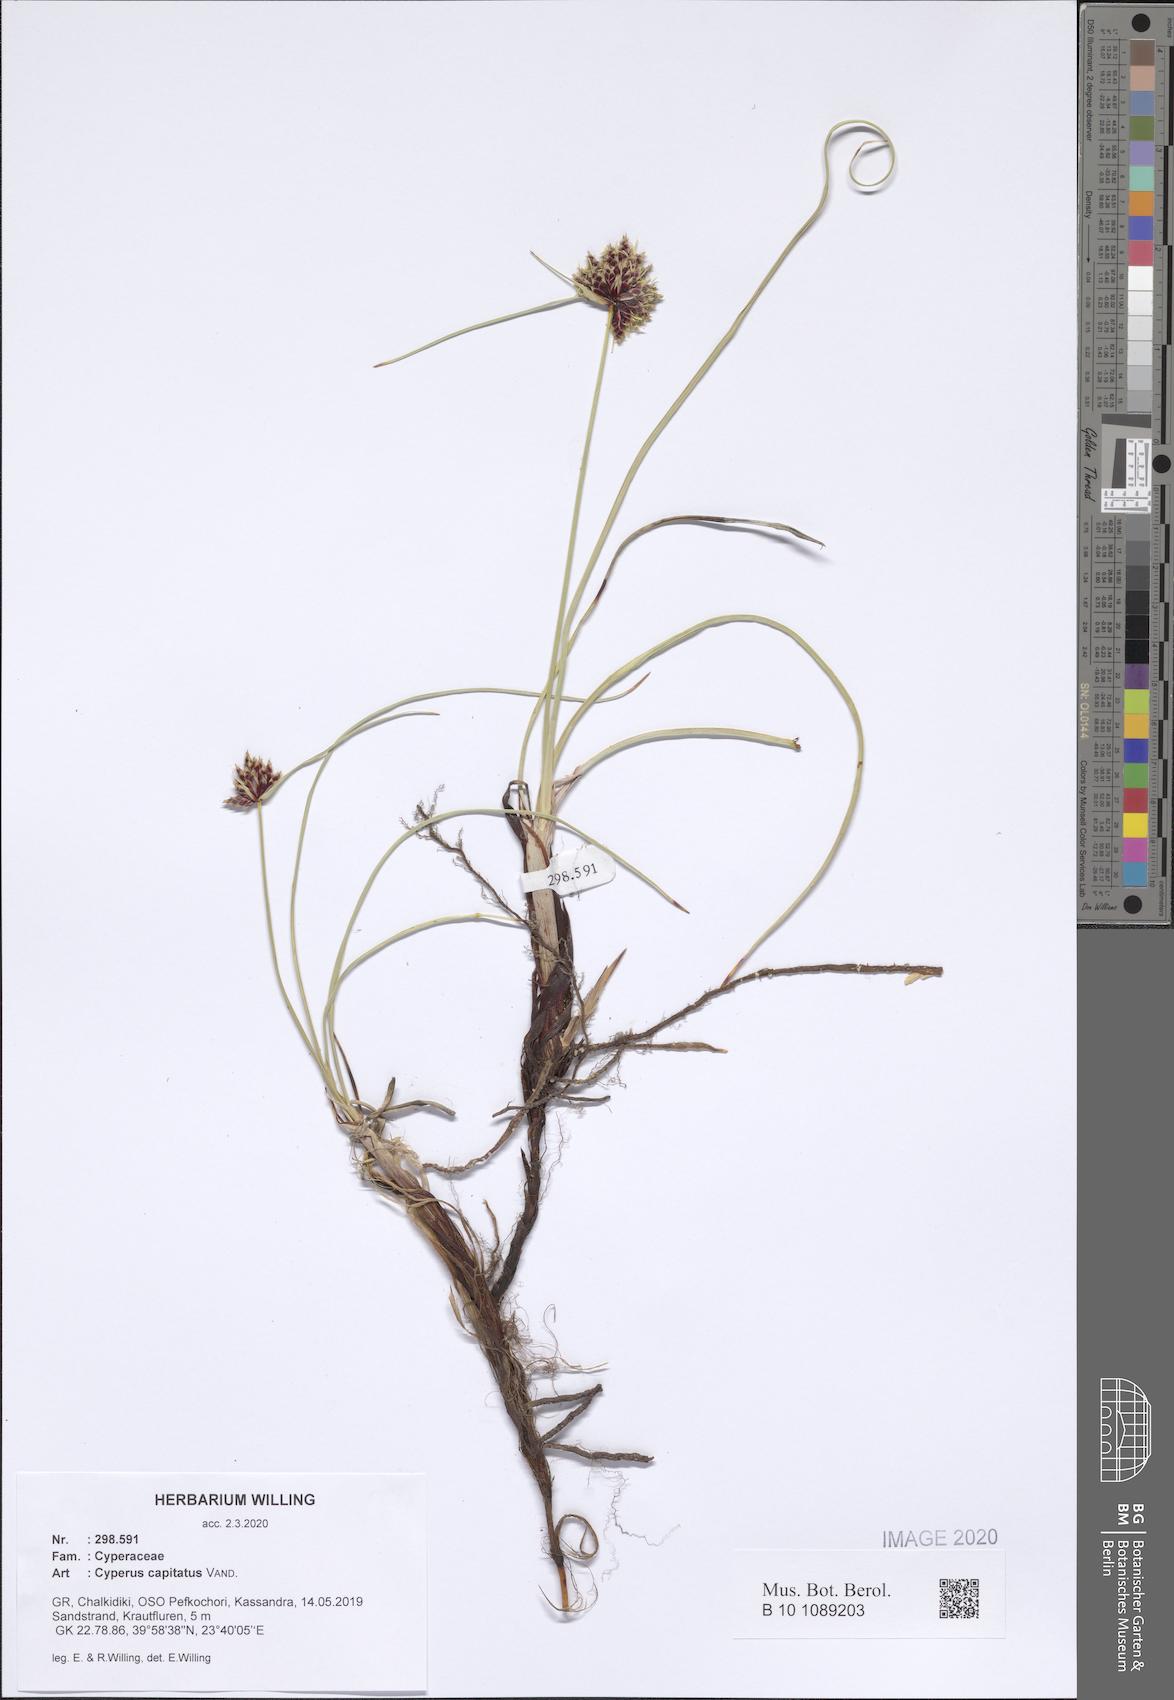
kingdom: Plantae
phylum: Tracheophyta
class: Liliopsida
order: Poales
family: Cyperaceae
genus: Cyperus
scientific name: Cyperus capitatus
